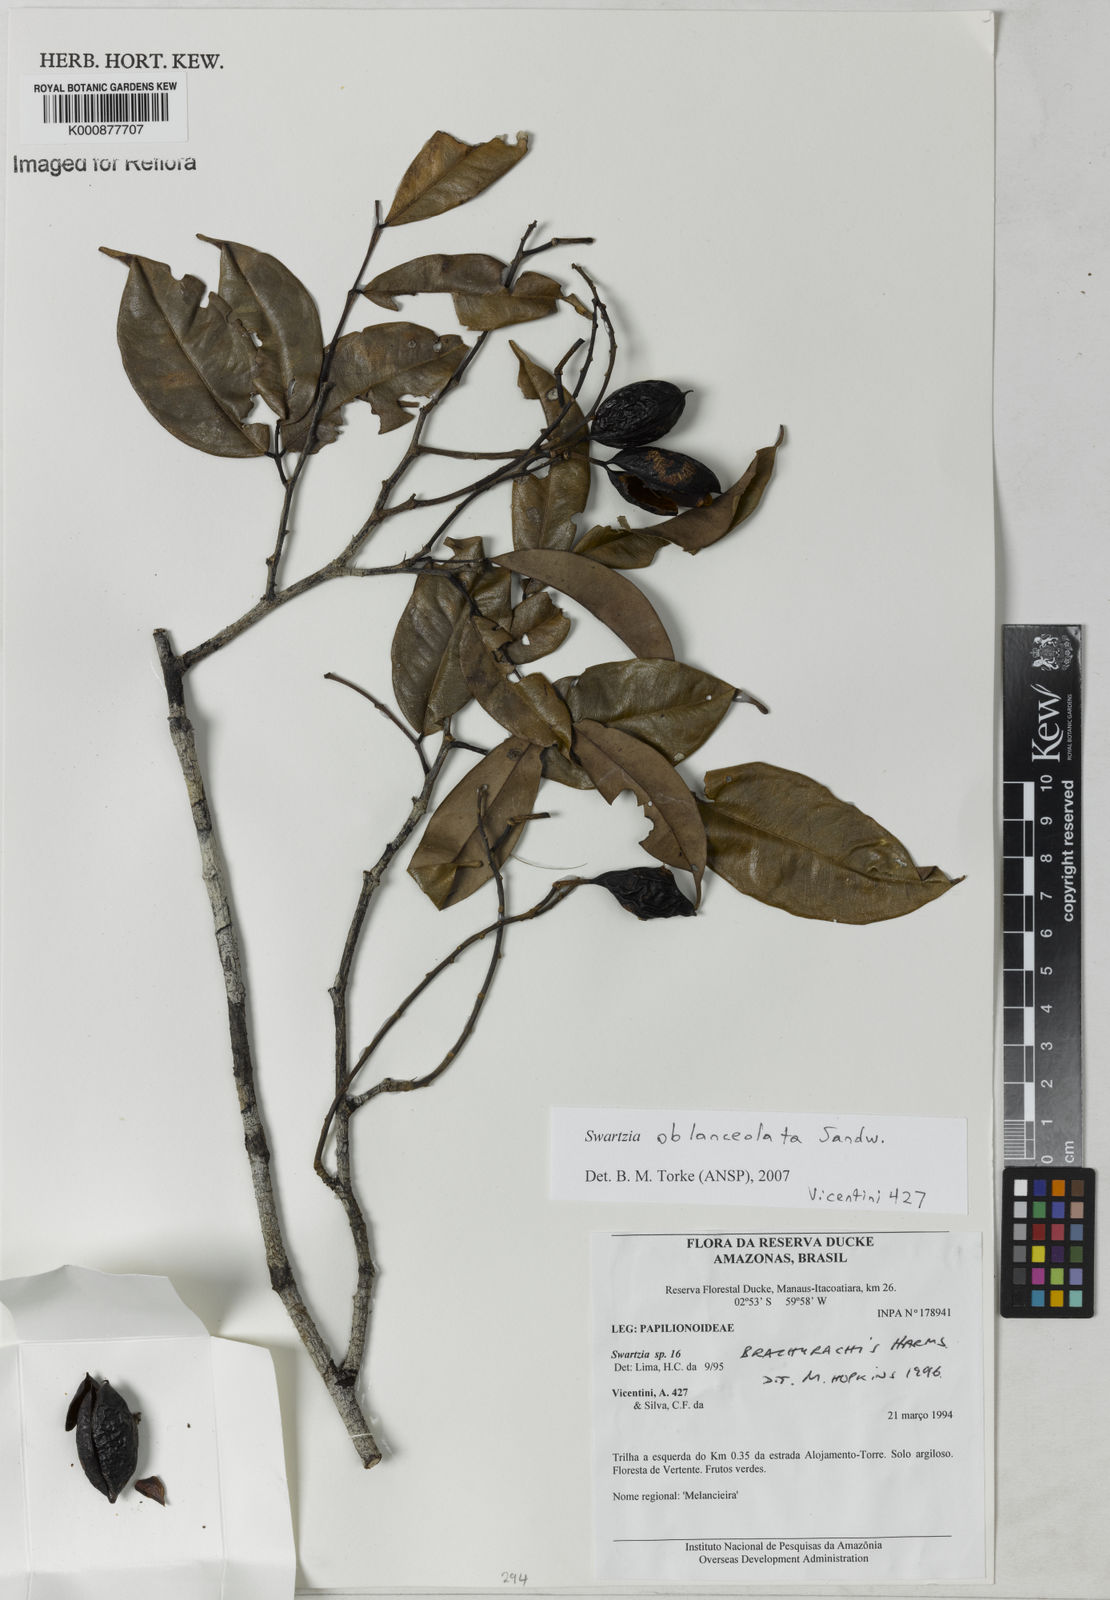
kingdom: Plantae
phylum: Tracheophyta
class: Magnoliopsida
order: Fabales
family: Fabaceae
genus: Swartzia
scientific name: Swartzia oblanceolata
